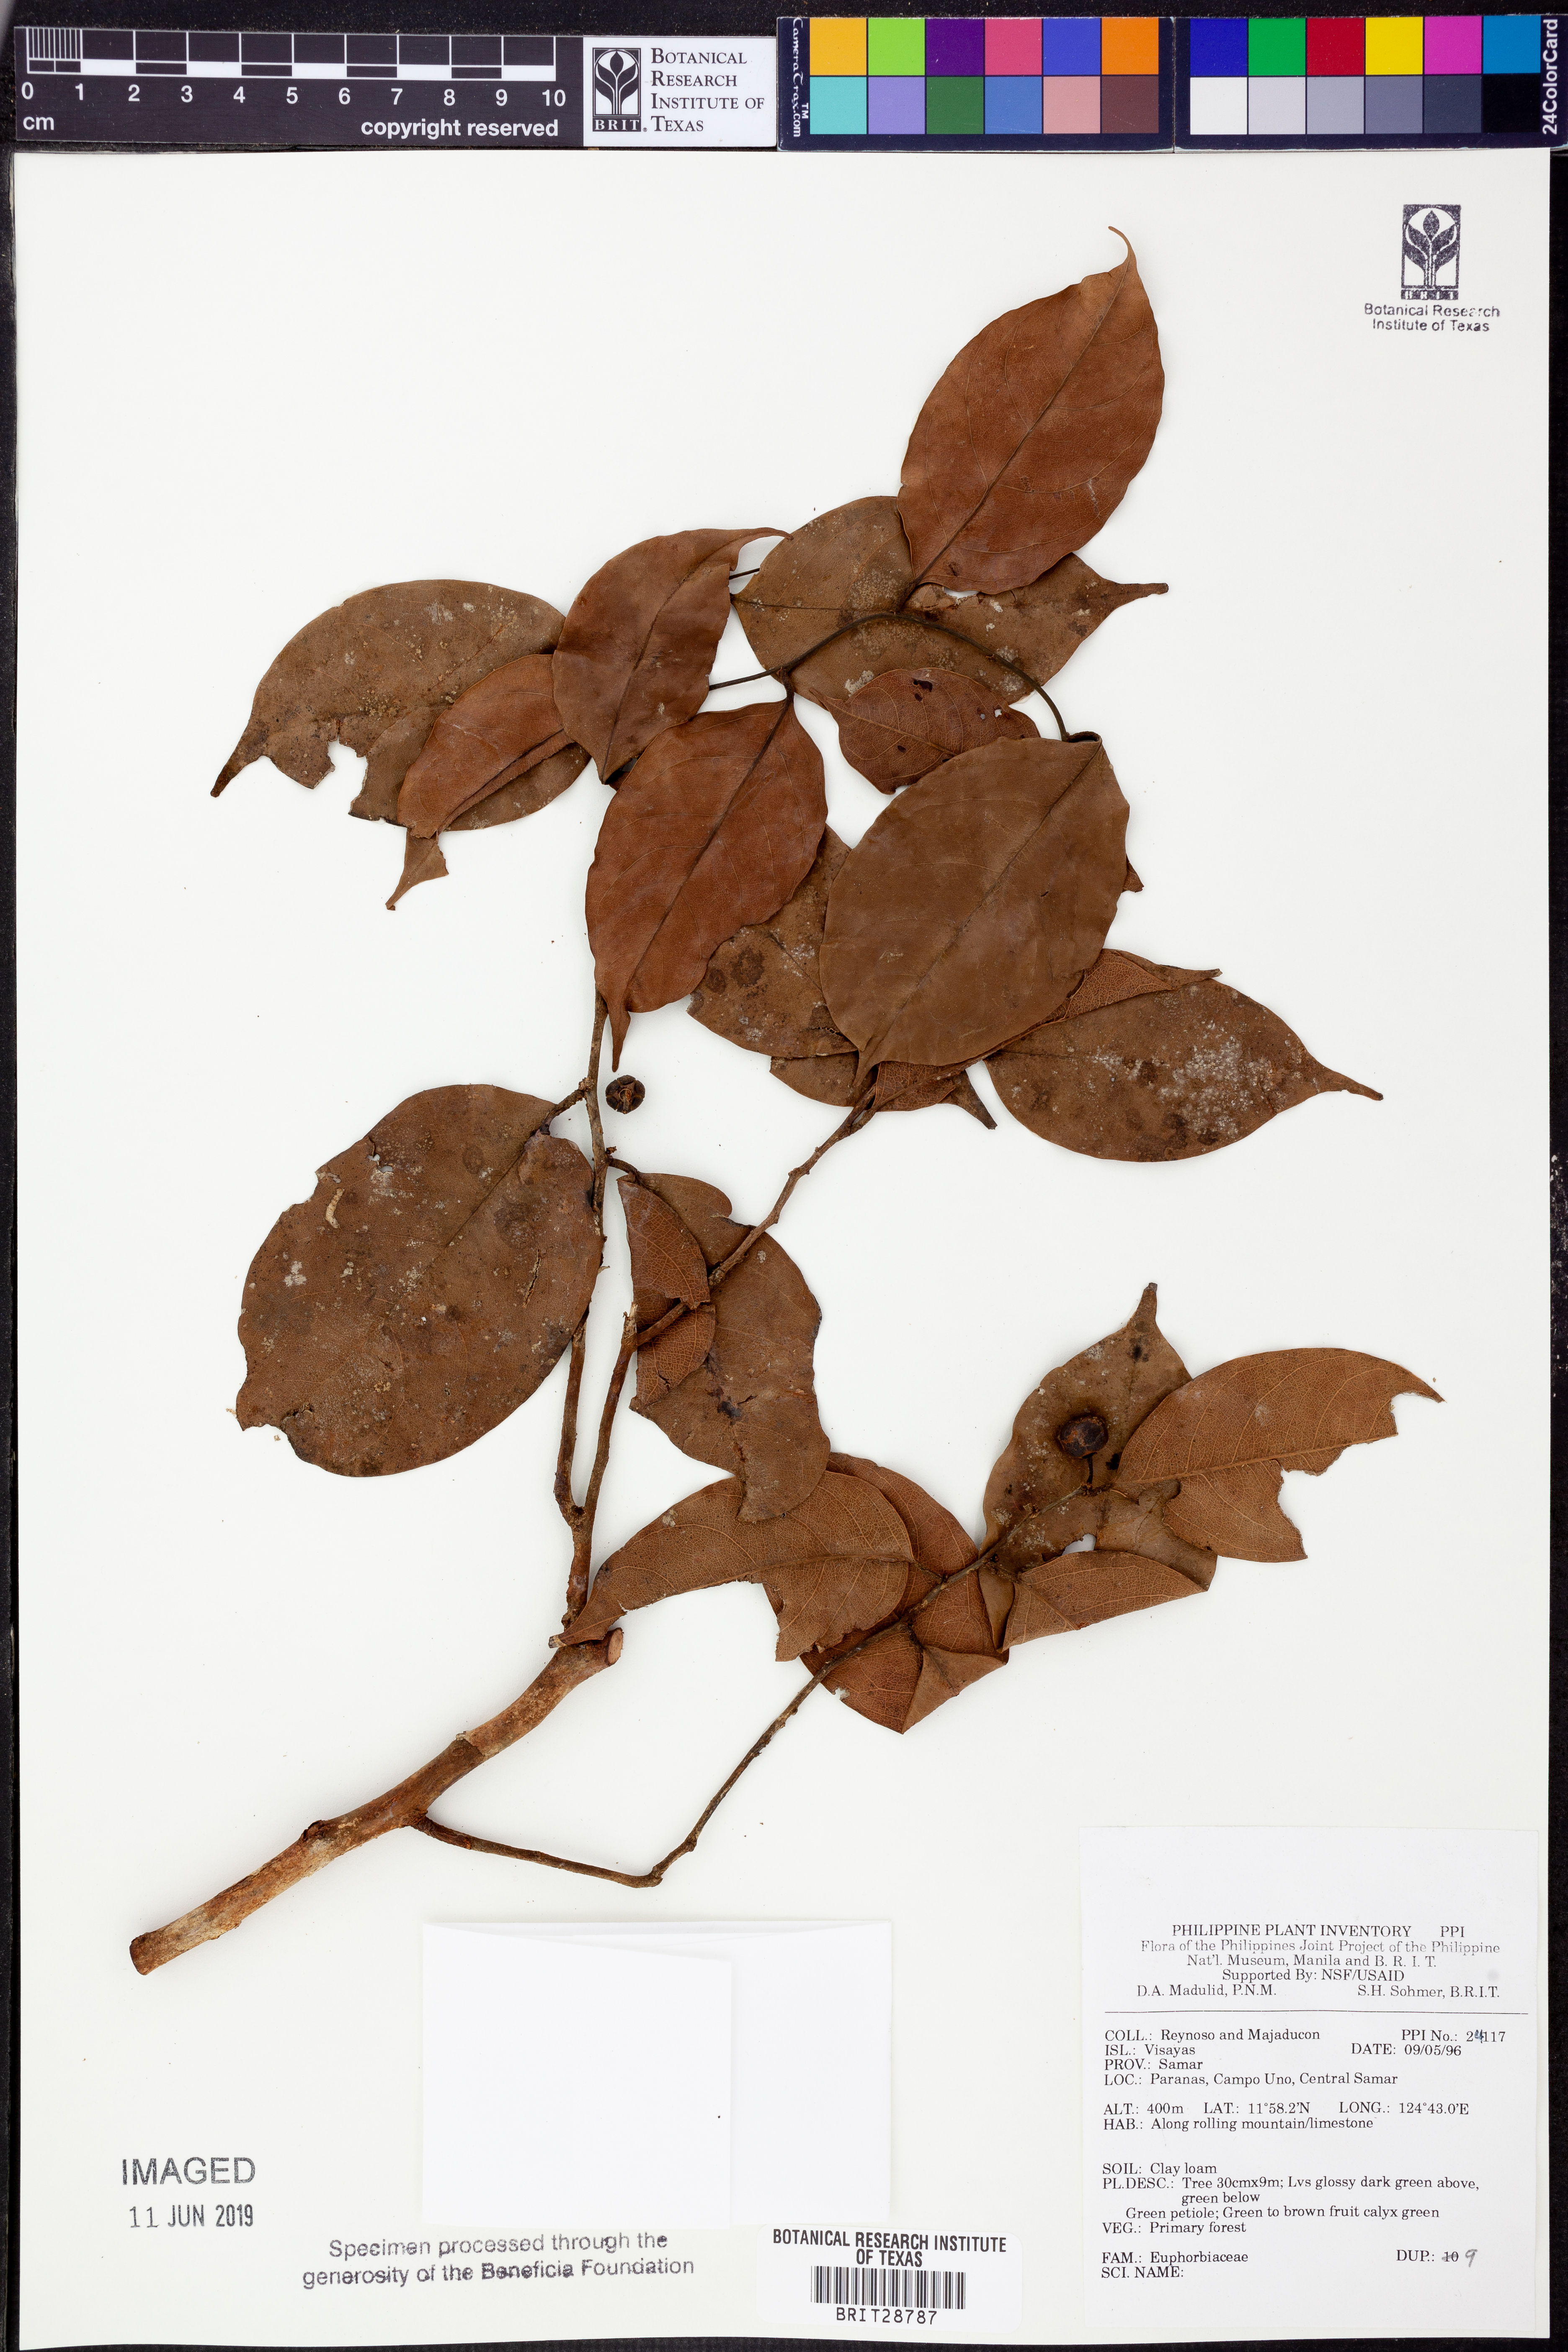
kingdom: Plantae
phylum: Tracheophyta
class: Magnoliopsida
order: Malpighiales
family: Euphorbiaceae
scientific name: Euphorbiaceae
